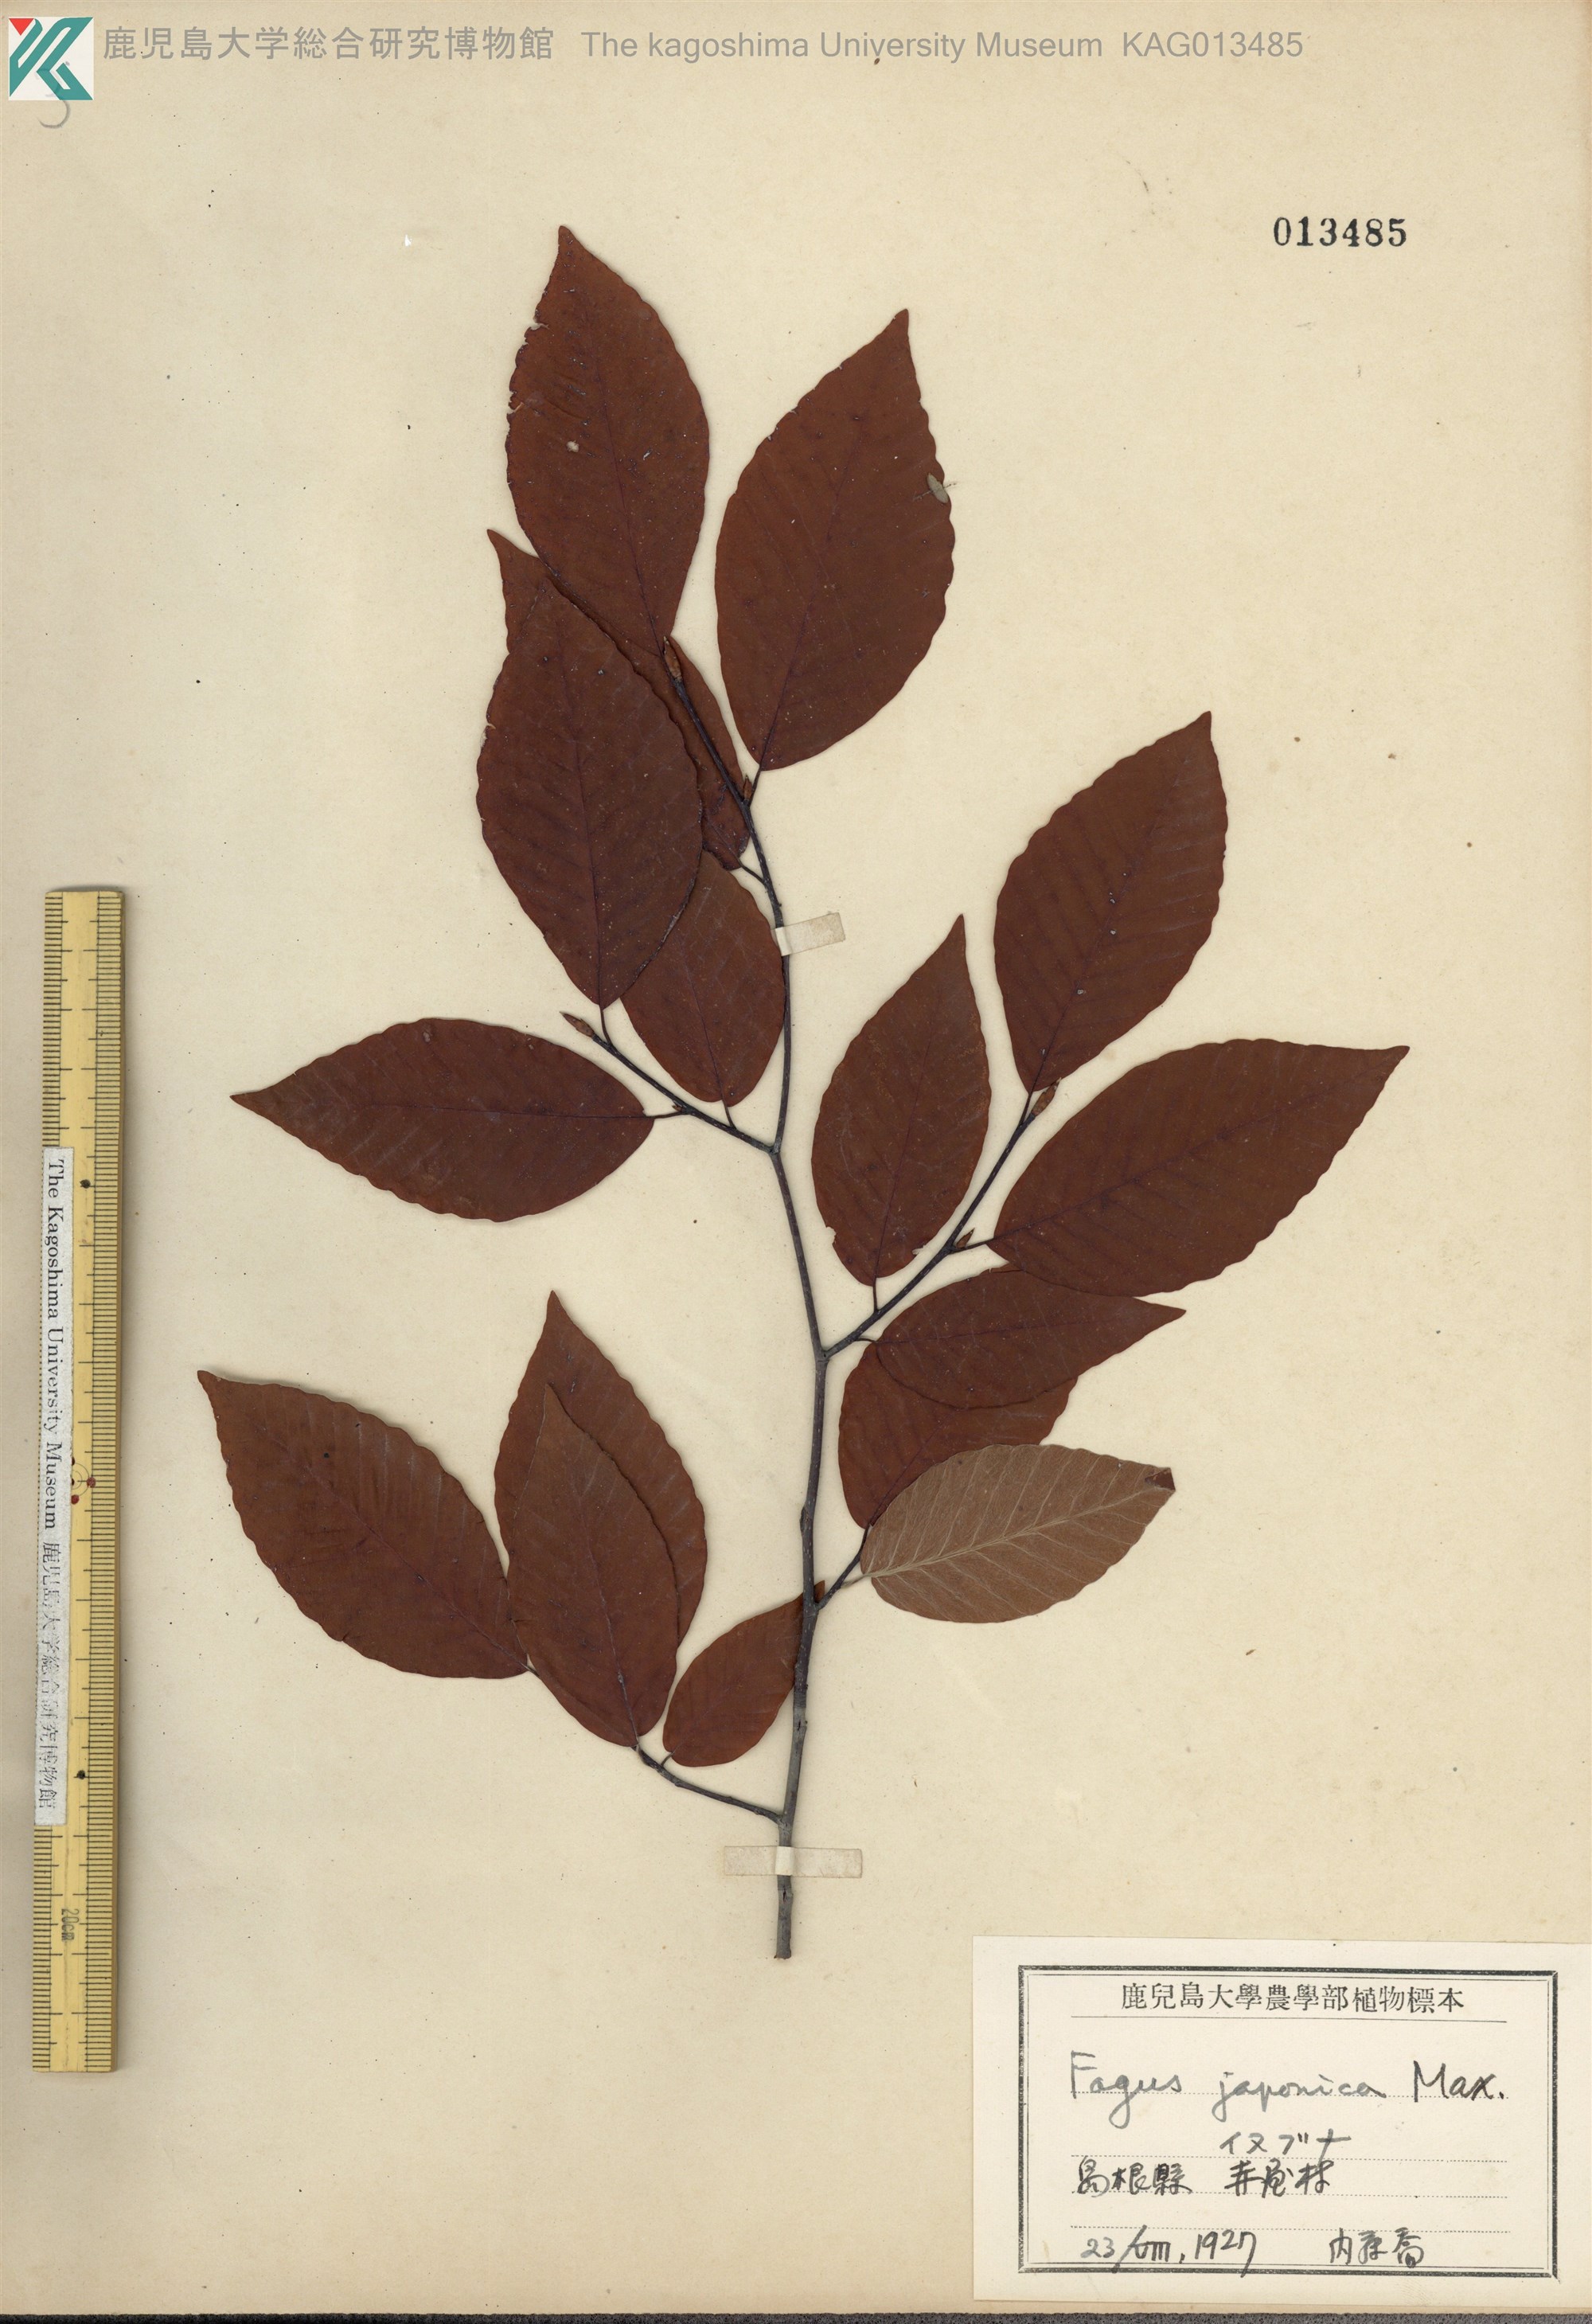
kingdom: Plantae
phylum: Tracheophyta
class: Magnoliopsida
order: Fagales
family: Fagaceae
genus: Fagus
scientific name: Fagus japonica
